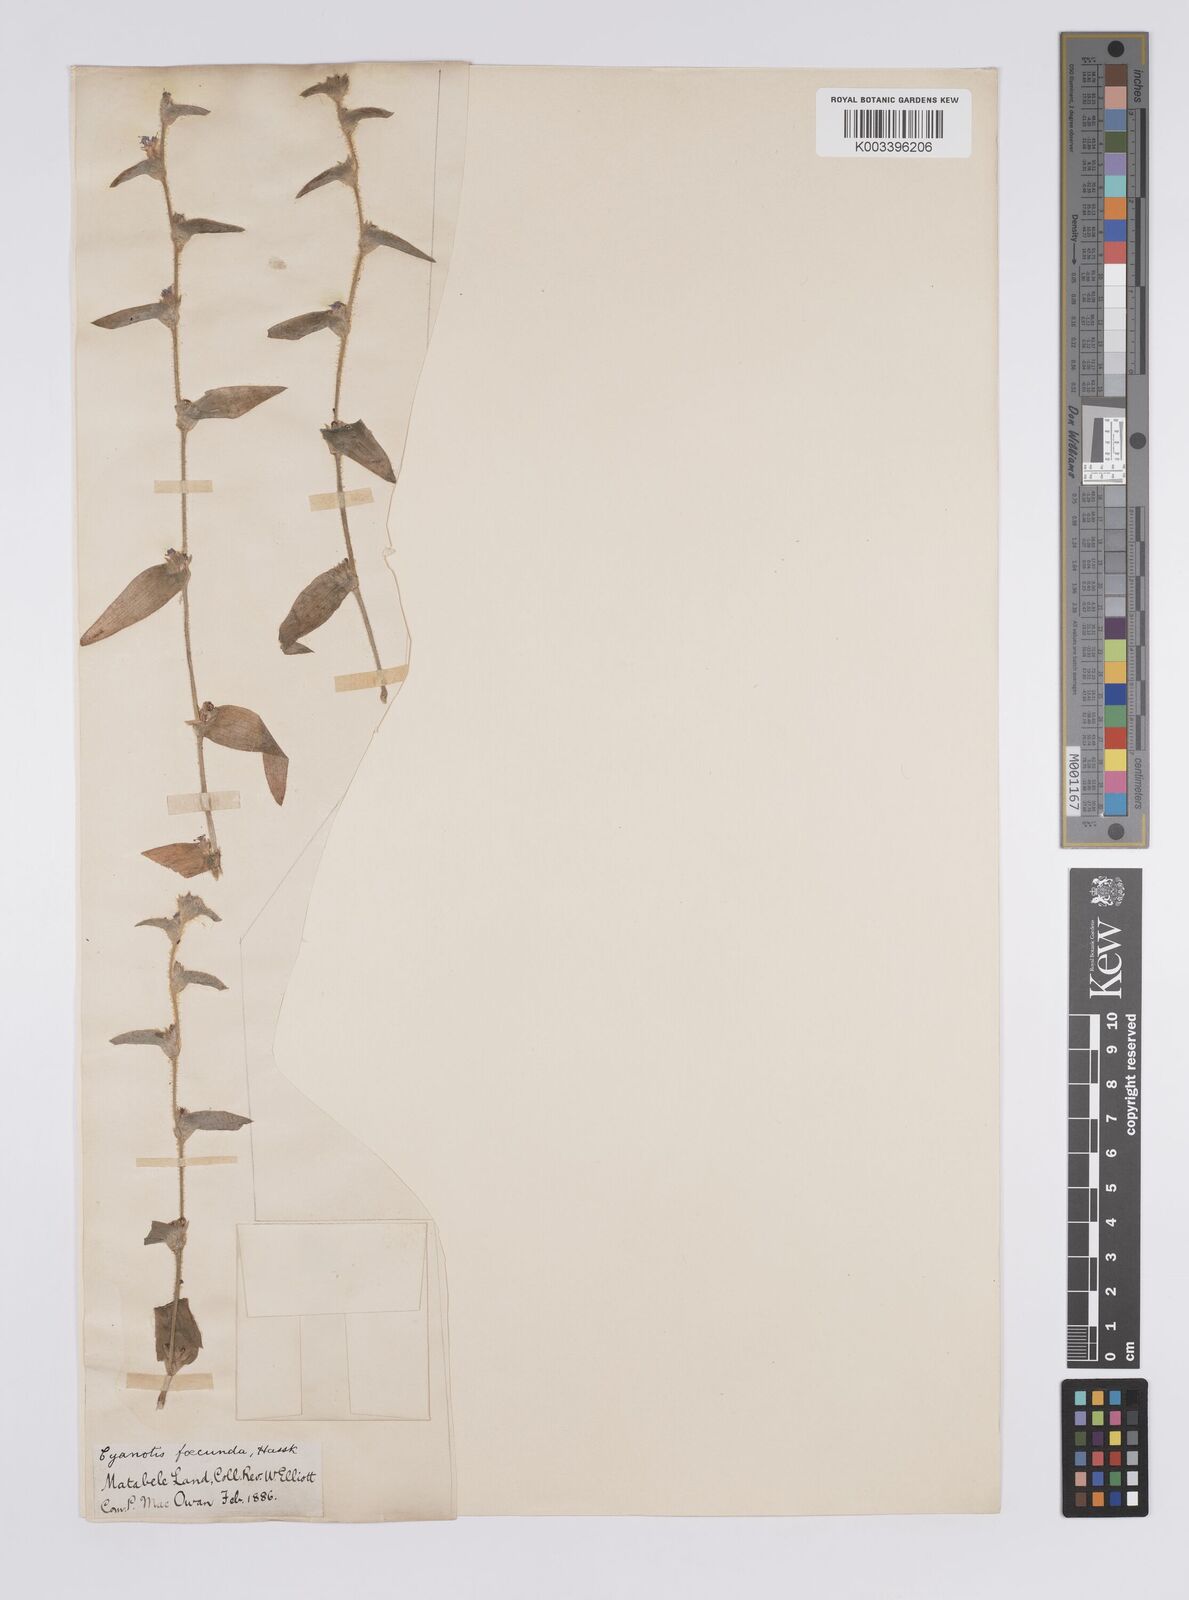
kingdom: Plantae
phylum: Tracheophyta
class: Liliopsida
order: Commelinales
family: Commelinaceae
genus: Cyanotis
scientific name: Cyanotis foecunda
